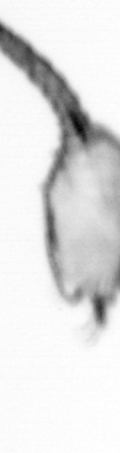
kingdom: Animalia
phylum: Arthropoda
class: Copepoda
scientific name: Copepoda
